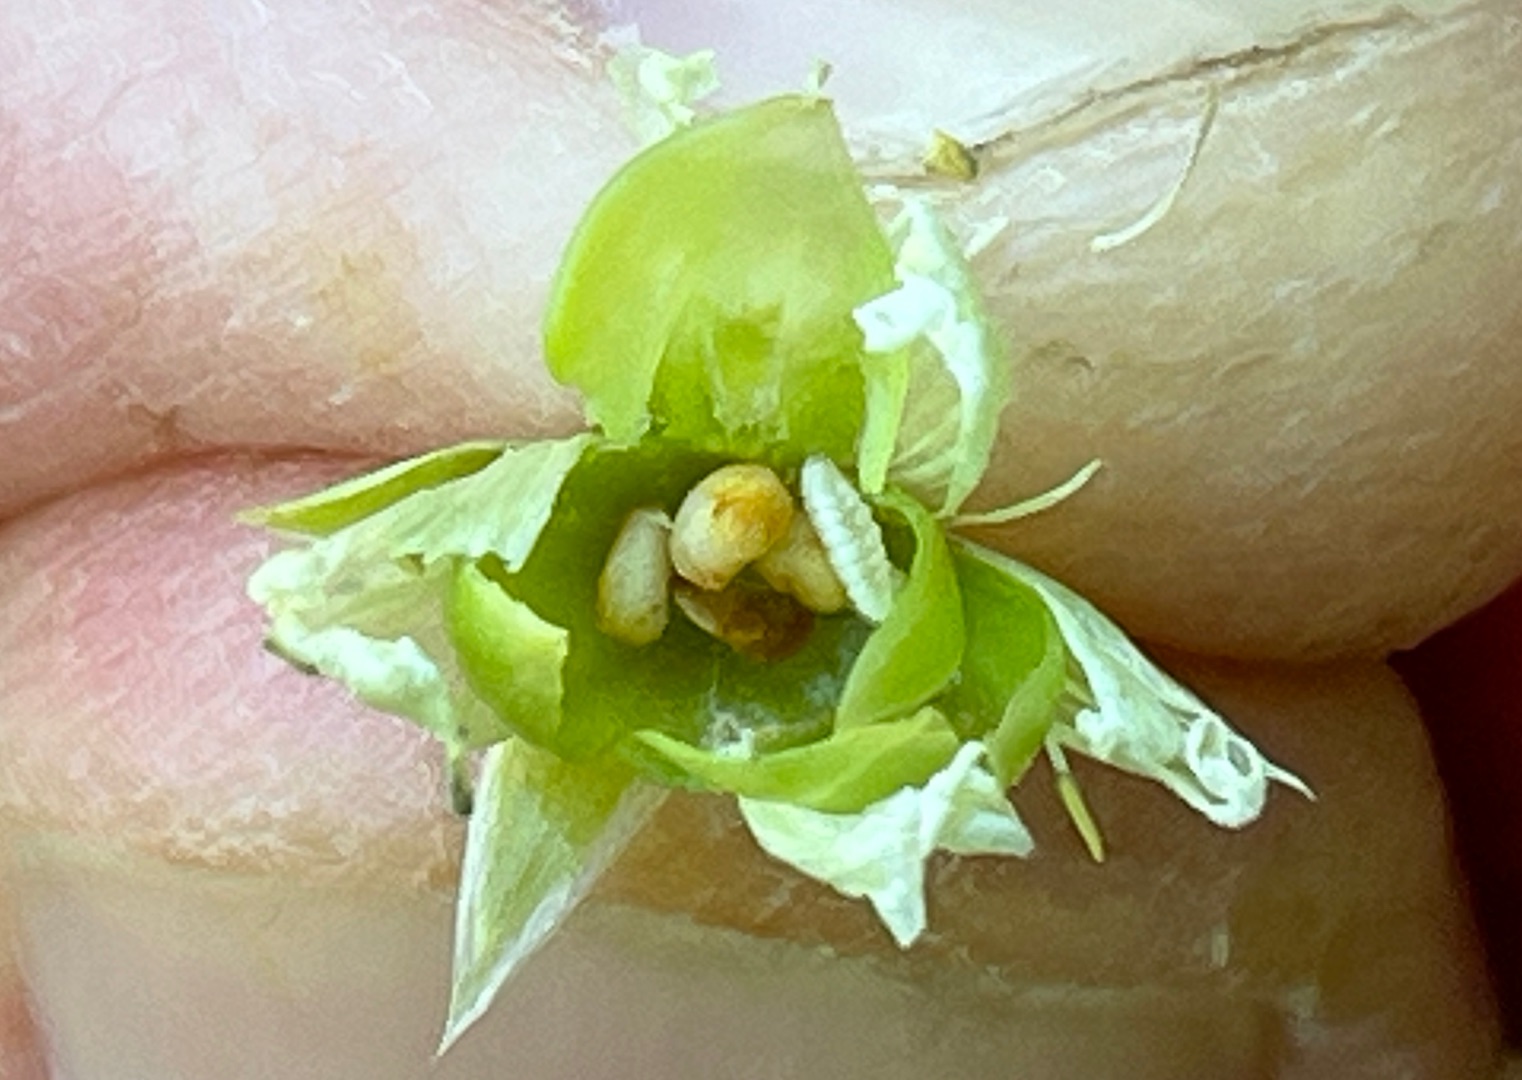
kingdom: Animalia
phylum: Arthropoda
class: Insecta
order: Diptera
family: Cecidomyiidae
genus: Dasineura
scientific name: Dasineura holosteae
